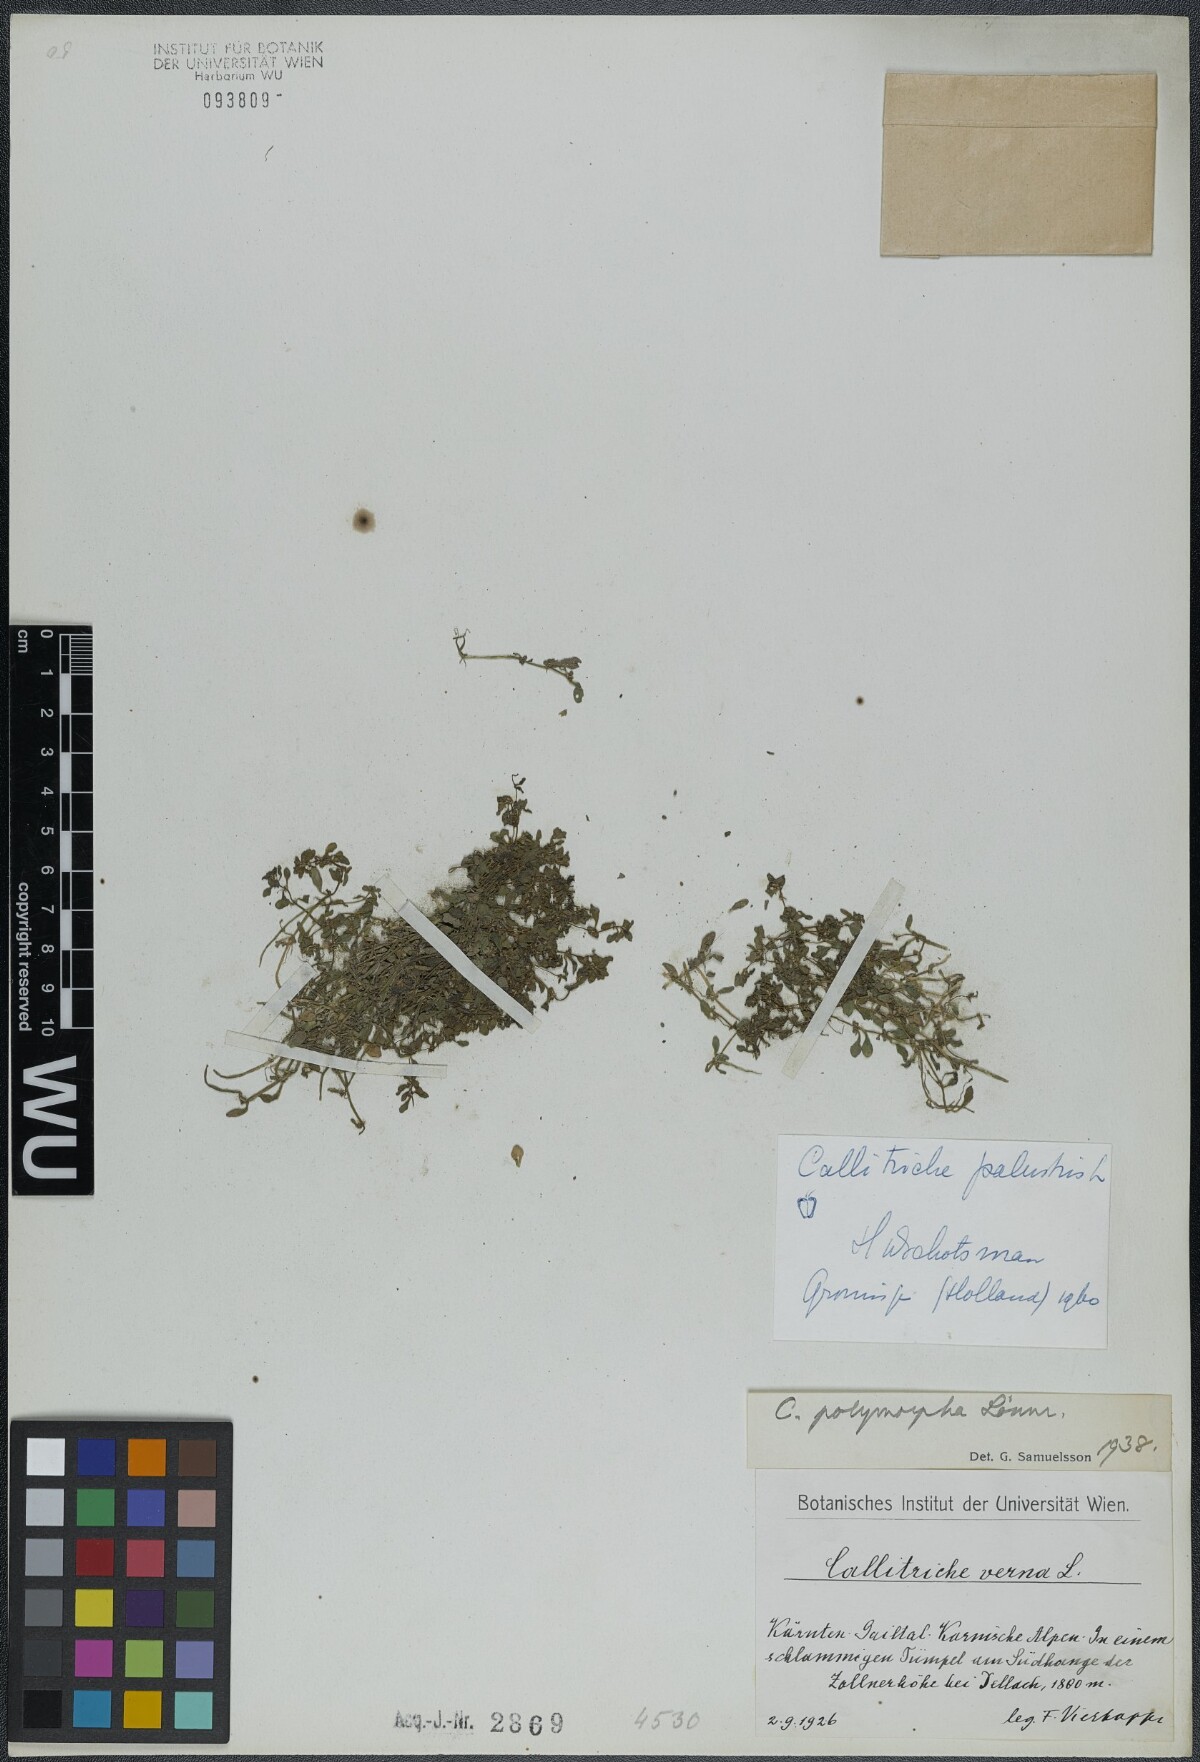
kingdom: Plantae
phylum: Tracheophyta
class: Magnoliopsida
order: Lamiales
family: Plantaginaceae
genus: Callitriche
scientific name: Callitriche palustris
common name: Spring water-starwort
